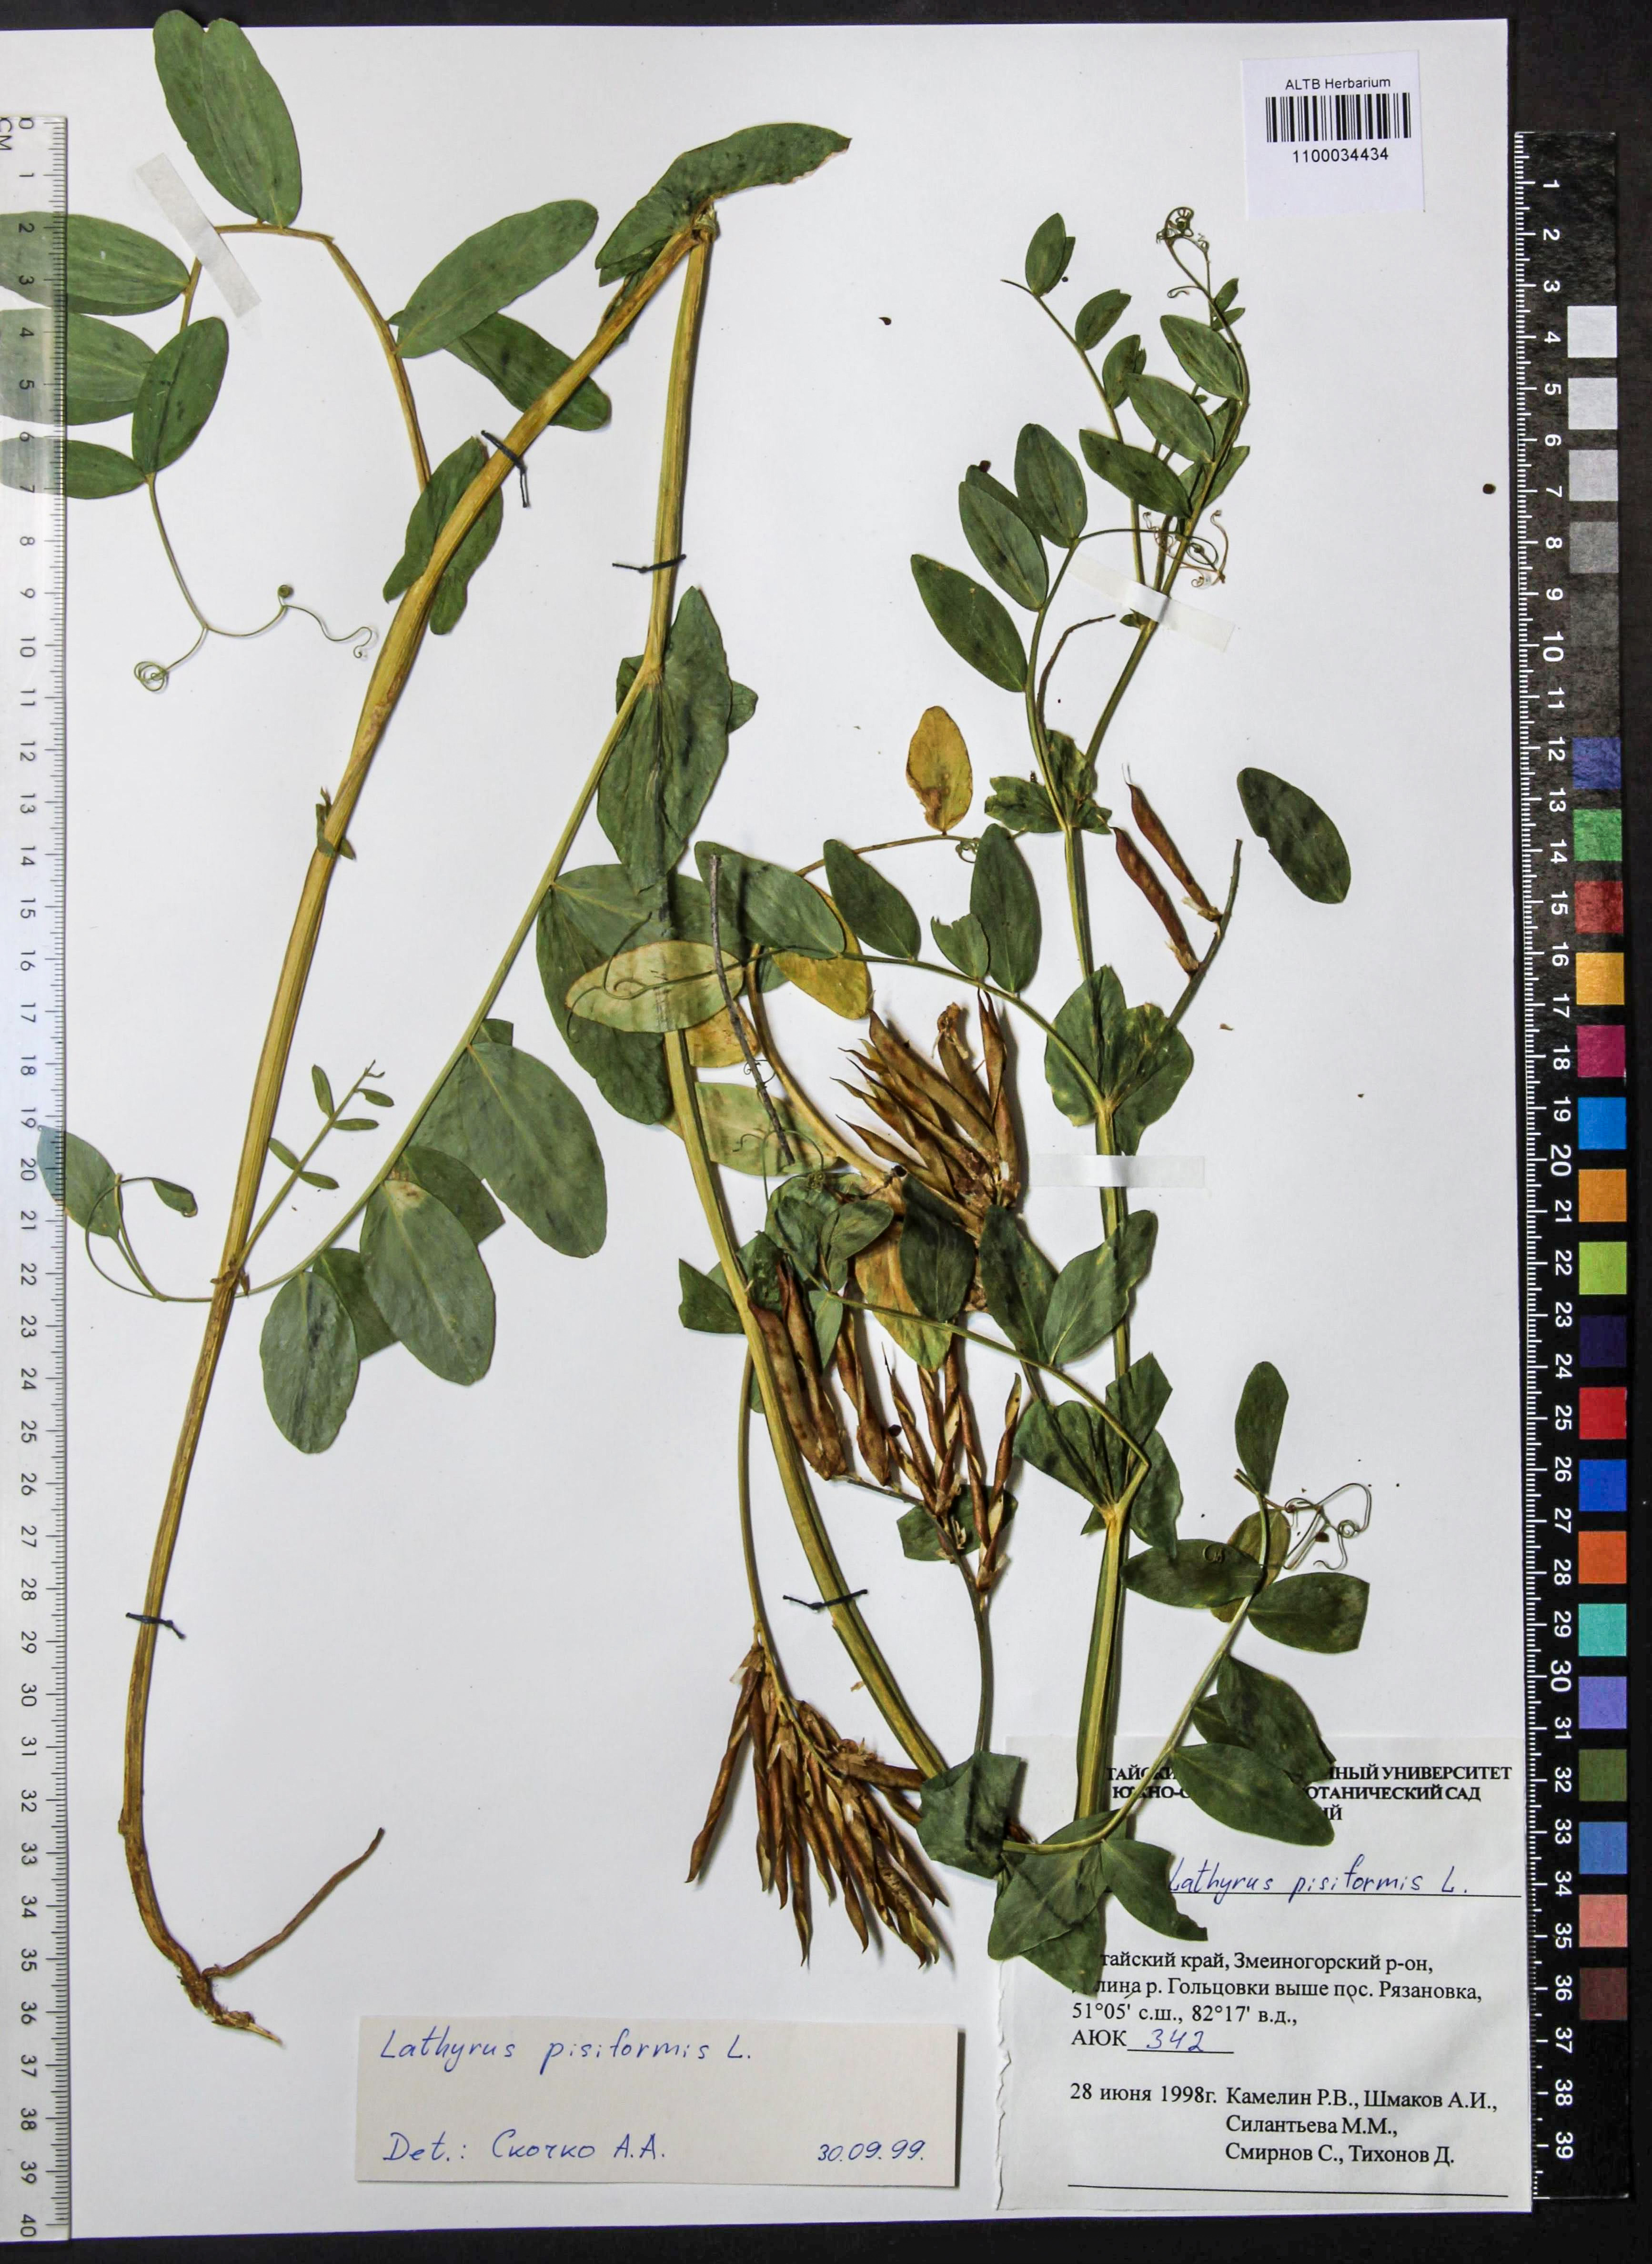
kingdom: Plantae
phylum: Tracheophyta
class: Magnoliopsida
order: Fabales
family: Fabaceae
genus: Lathyrus
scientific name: Lathyrus pisiformis
